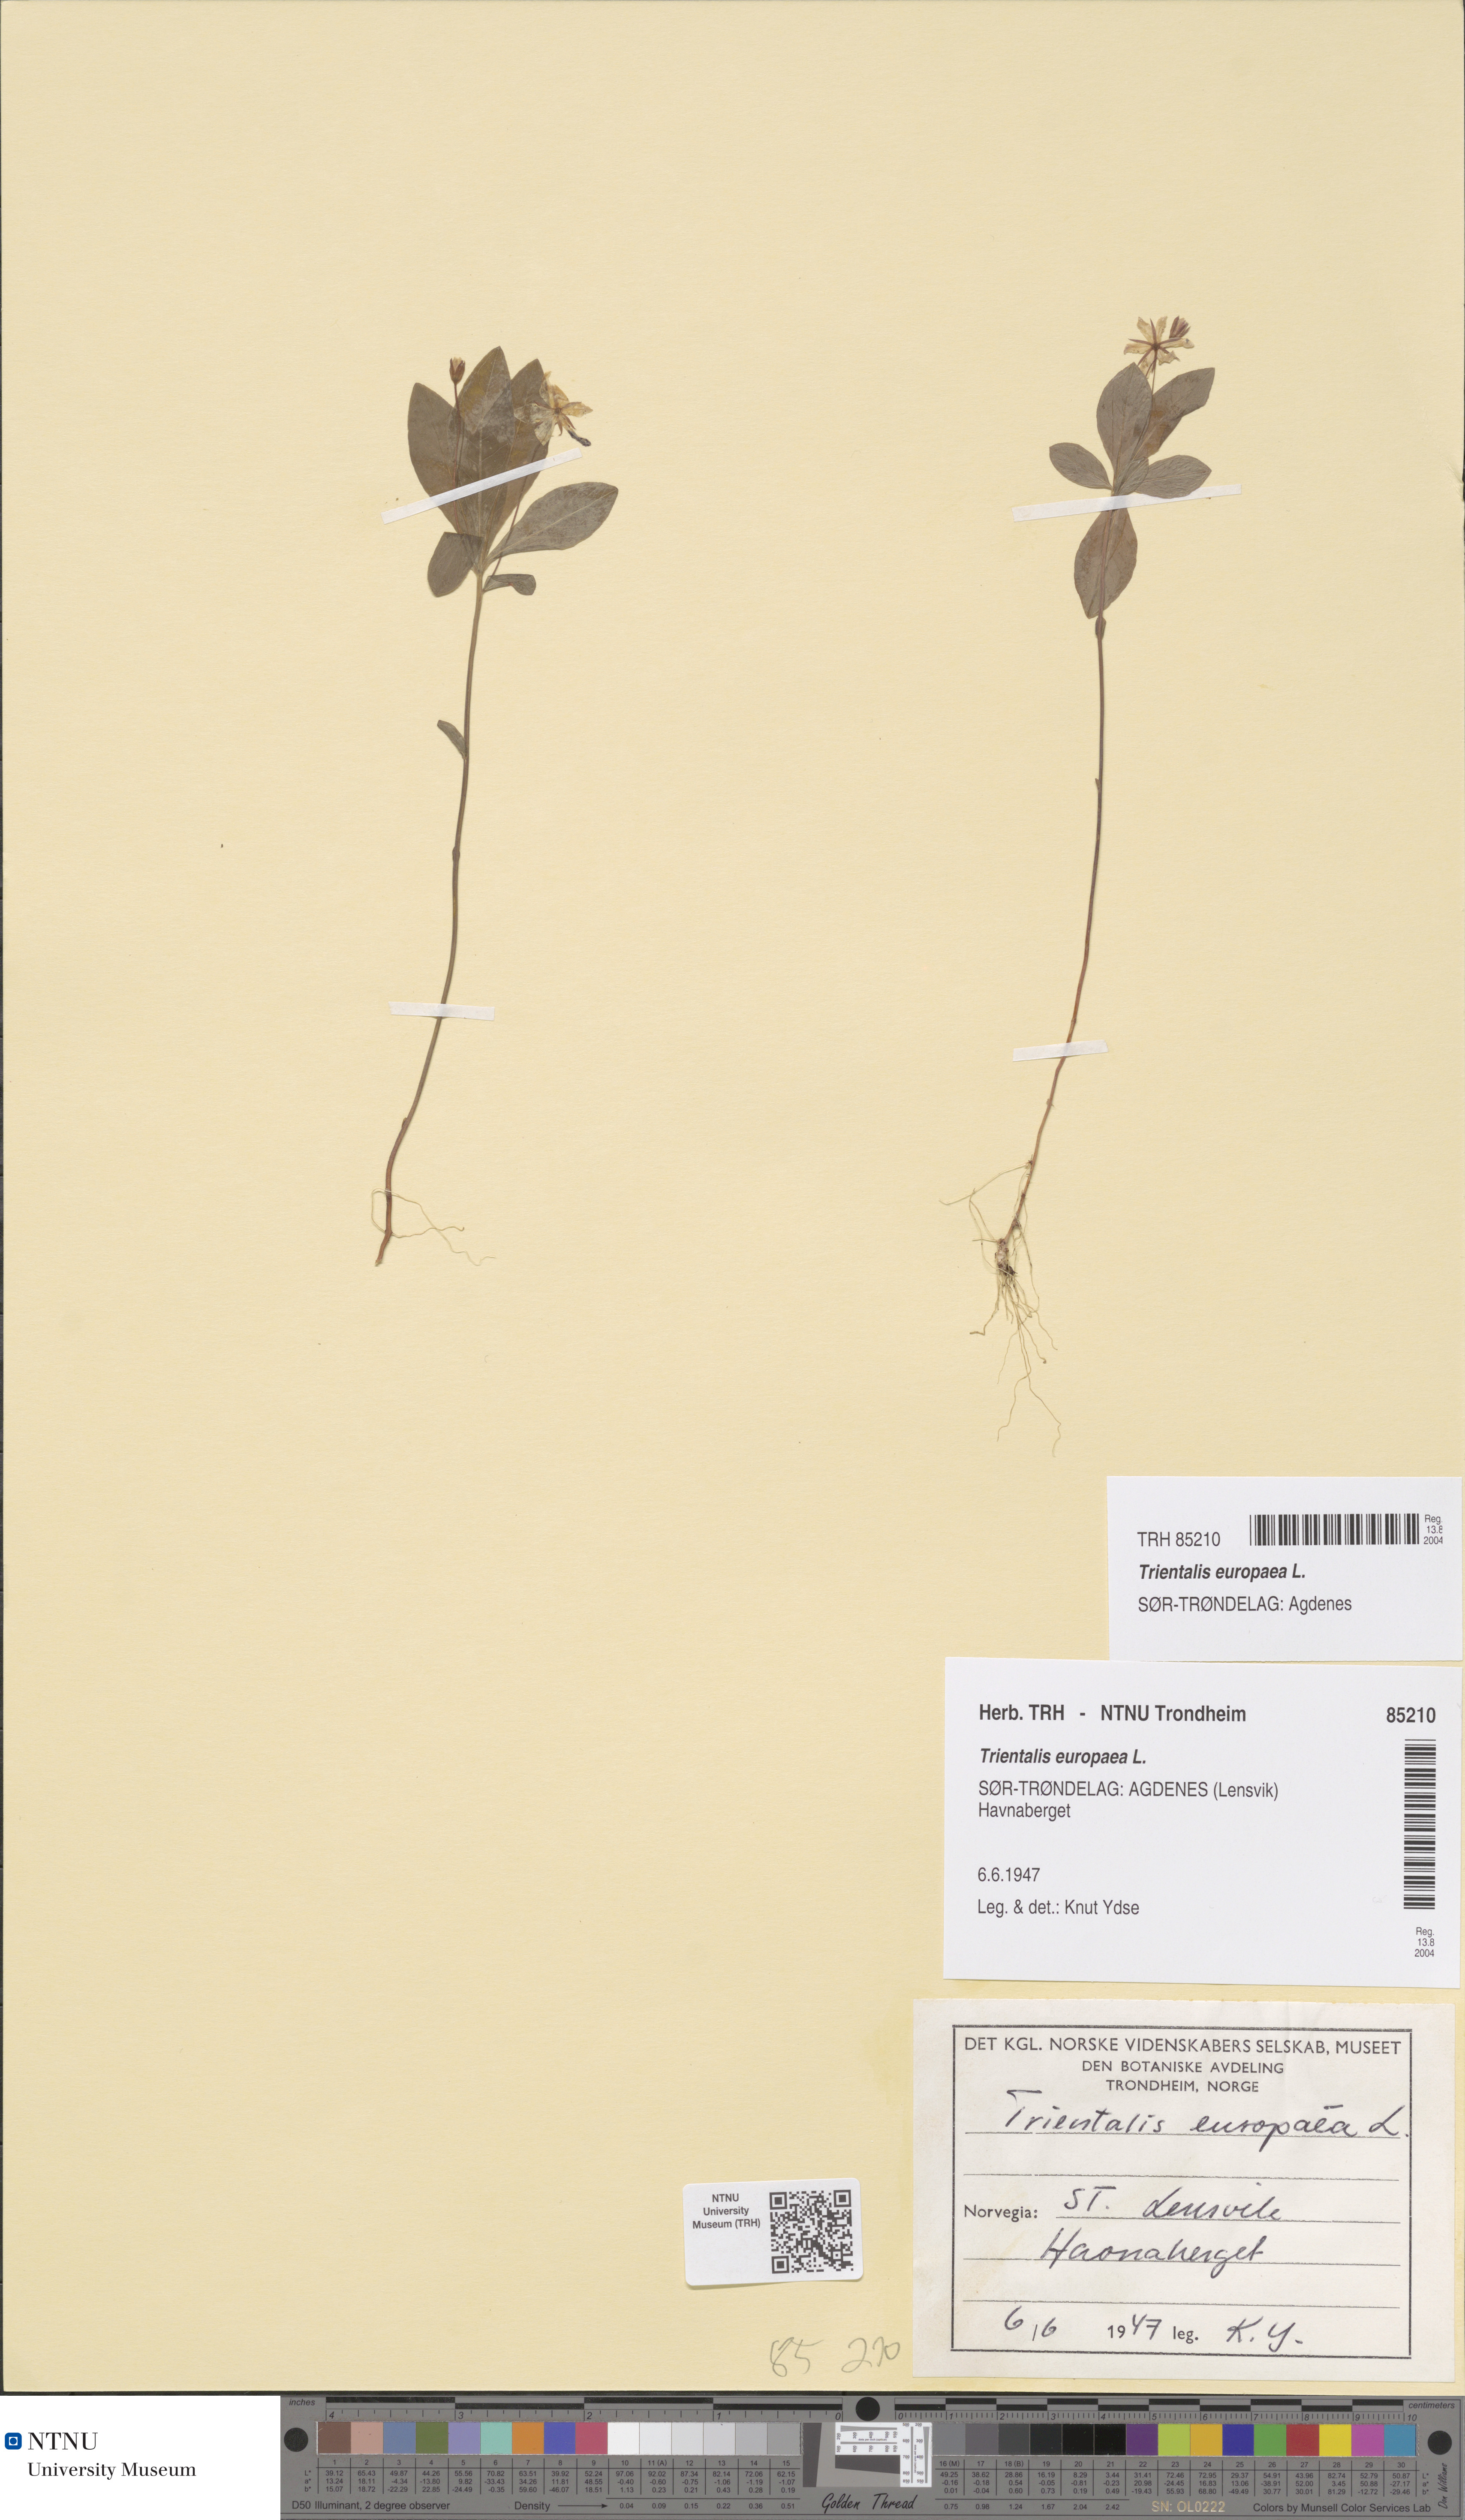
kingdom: Plantae
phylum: Tracheophyta
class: Magnoliopsida
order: Ericales
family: Primulaceae
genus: Lysimachia
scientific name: Lysimachia europaea
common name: Arctic starflower
